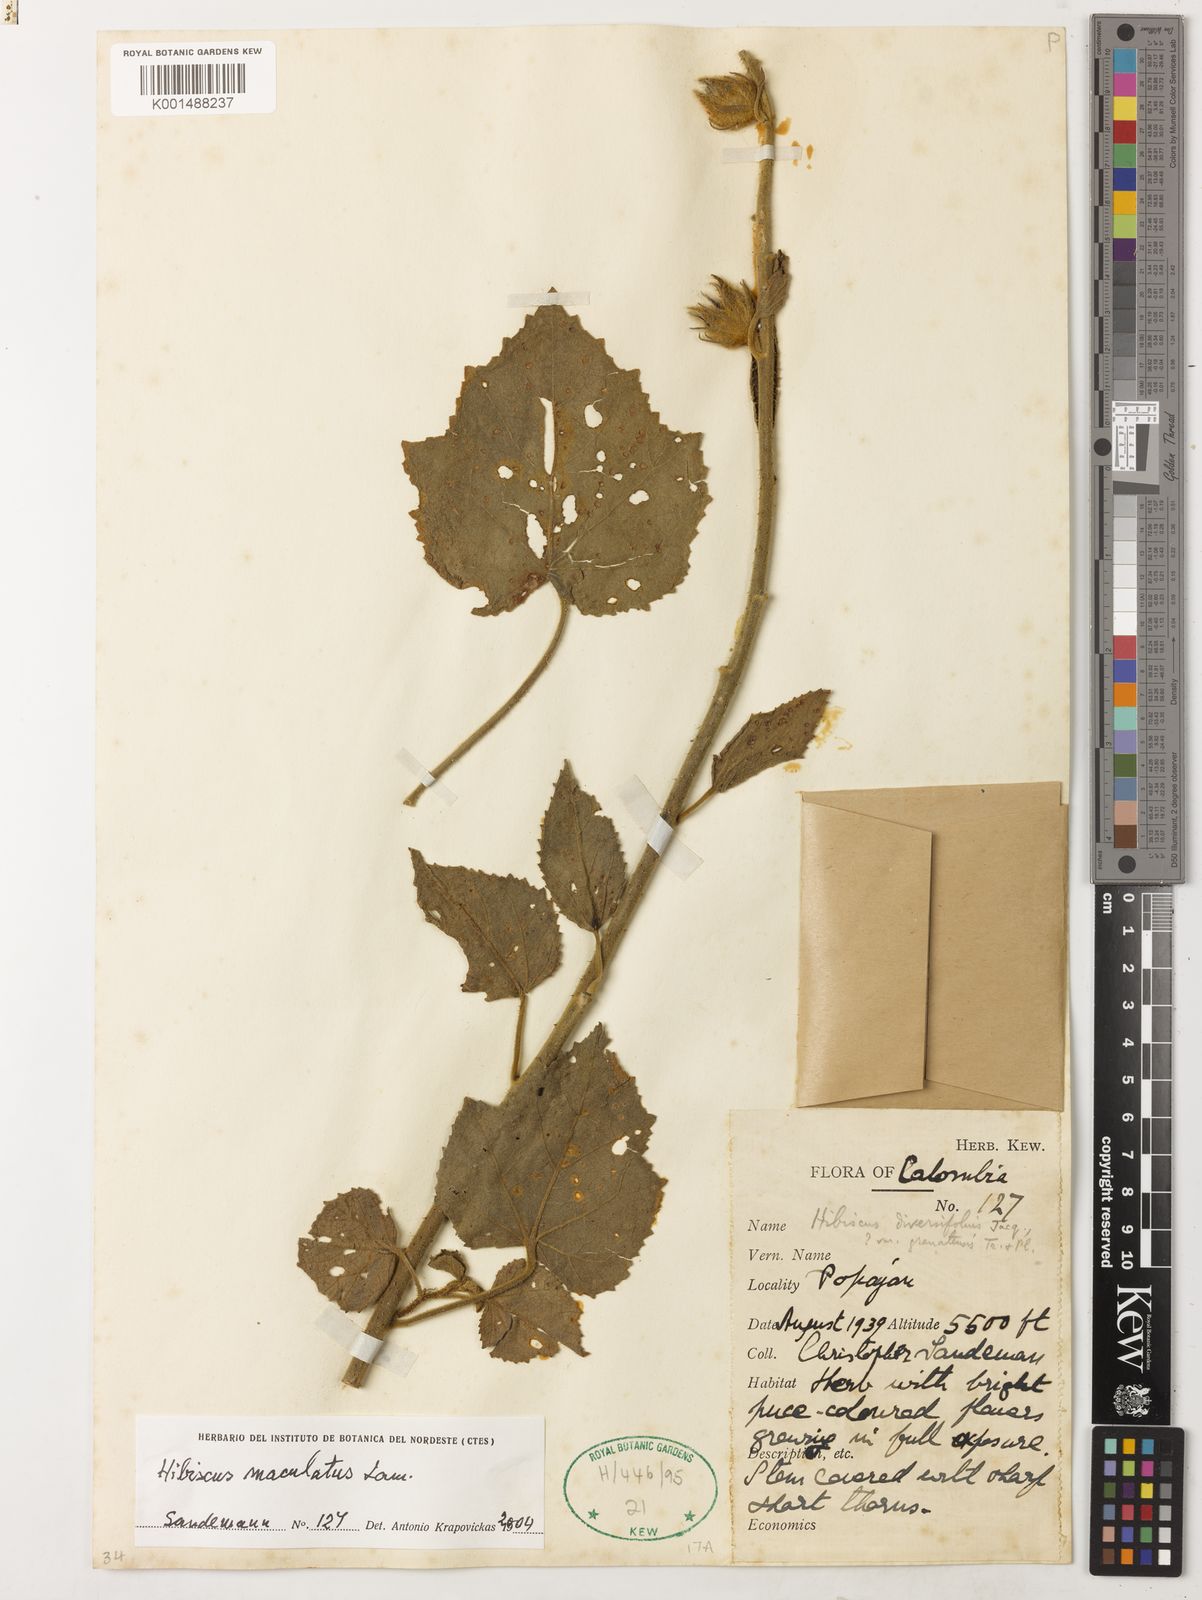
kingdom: Plantae
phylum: Tracheophyta
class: Magnoliopsida
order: Malvales
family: Malvaceae
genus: Hibiscus
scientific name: Hibiscus maculatus
